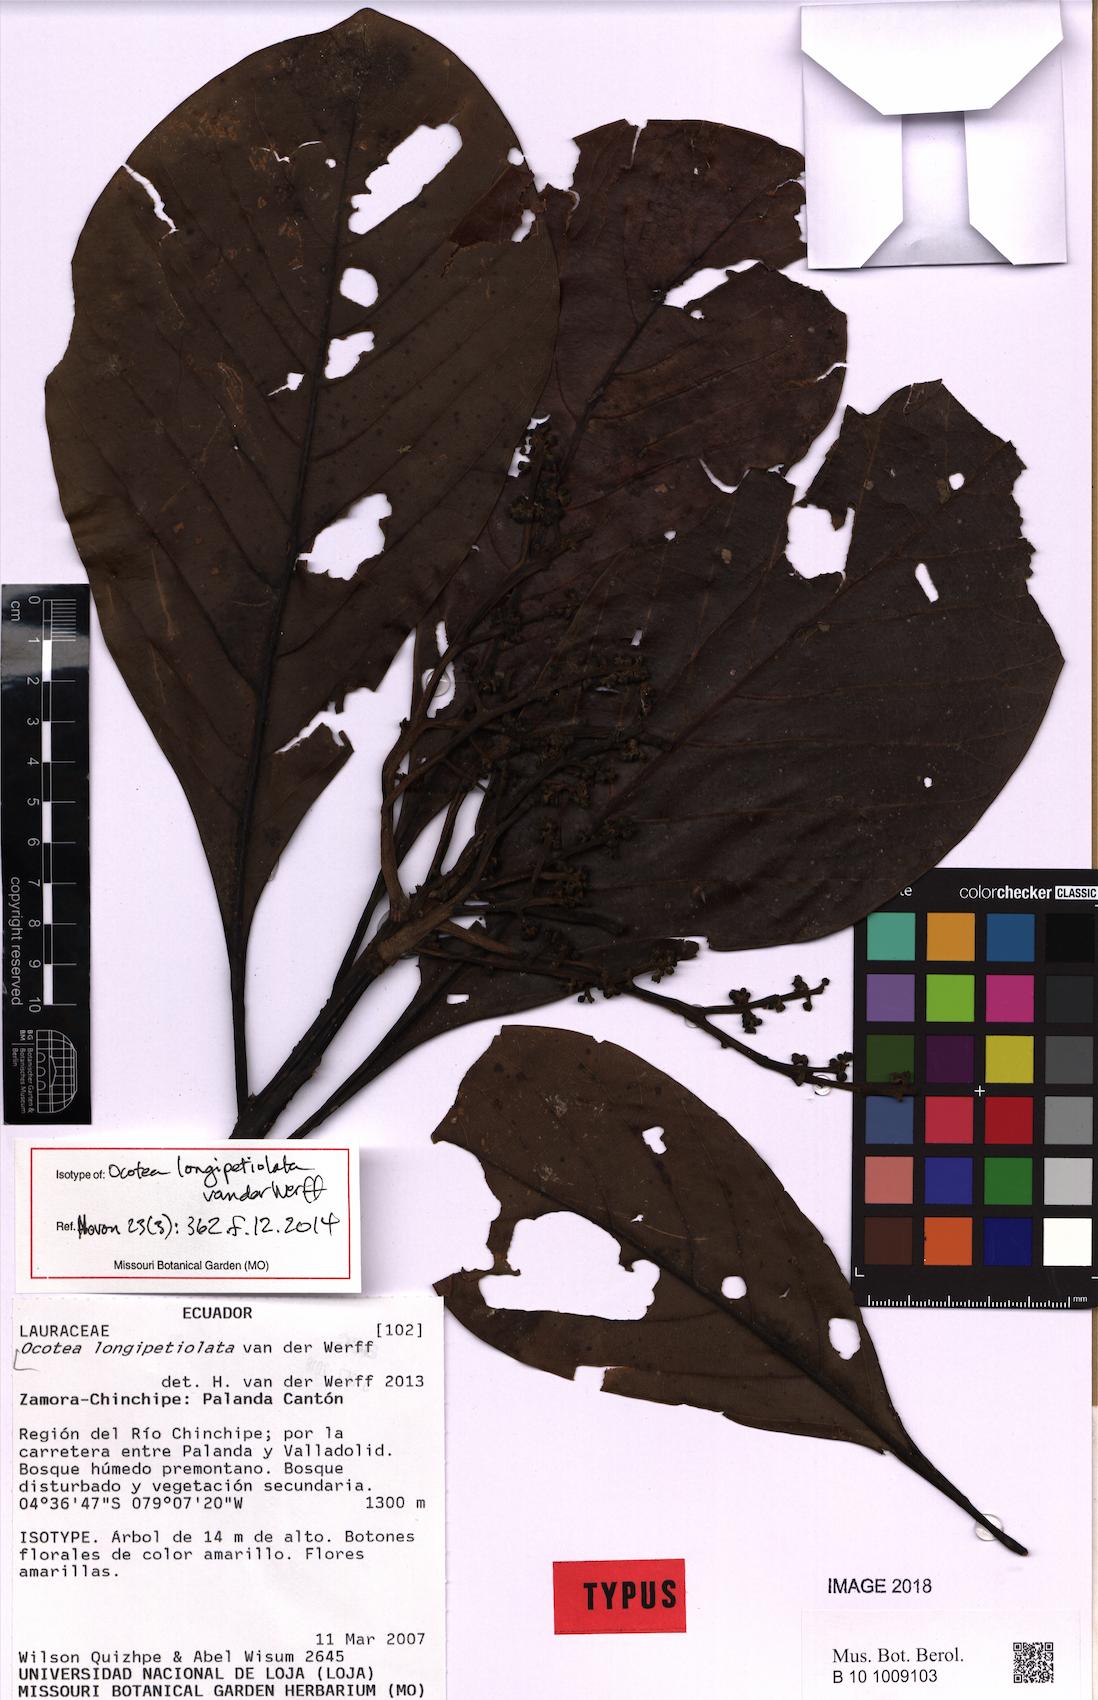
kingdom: Plantae
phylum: Tracheophyta
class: Magnoliopsida
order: Laurales
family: Lauraceae
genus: Ocotea
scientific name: Ocotea longipetiolata
